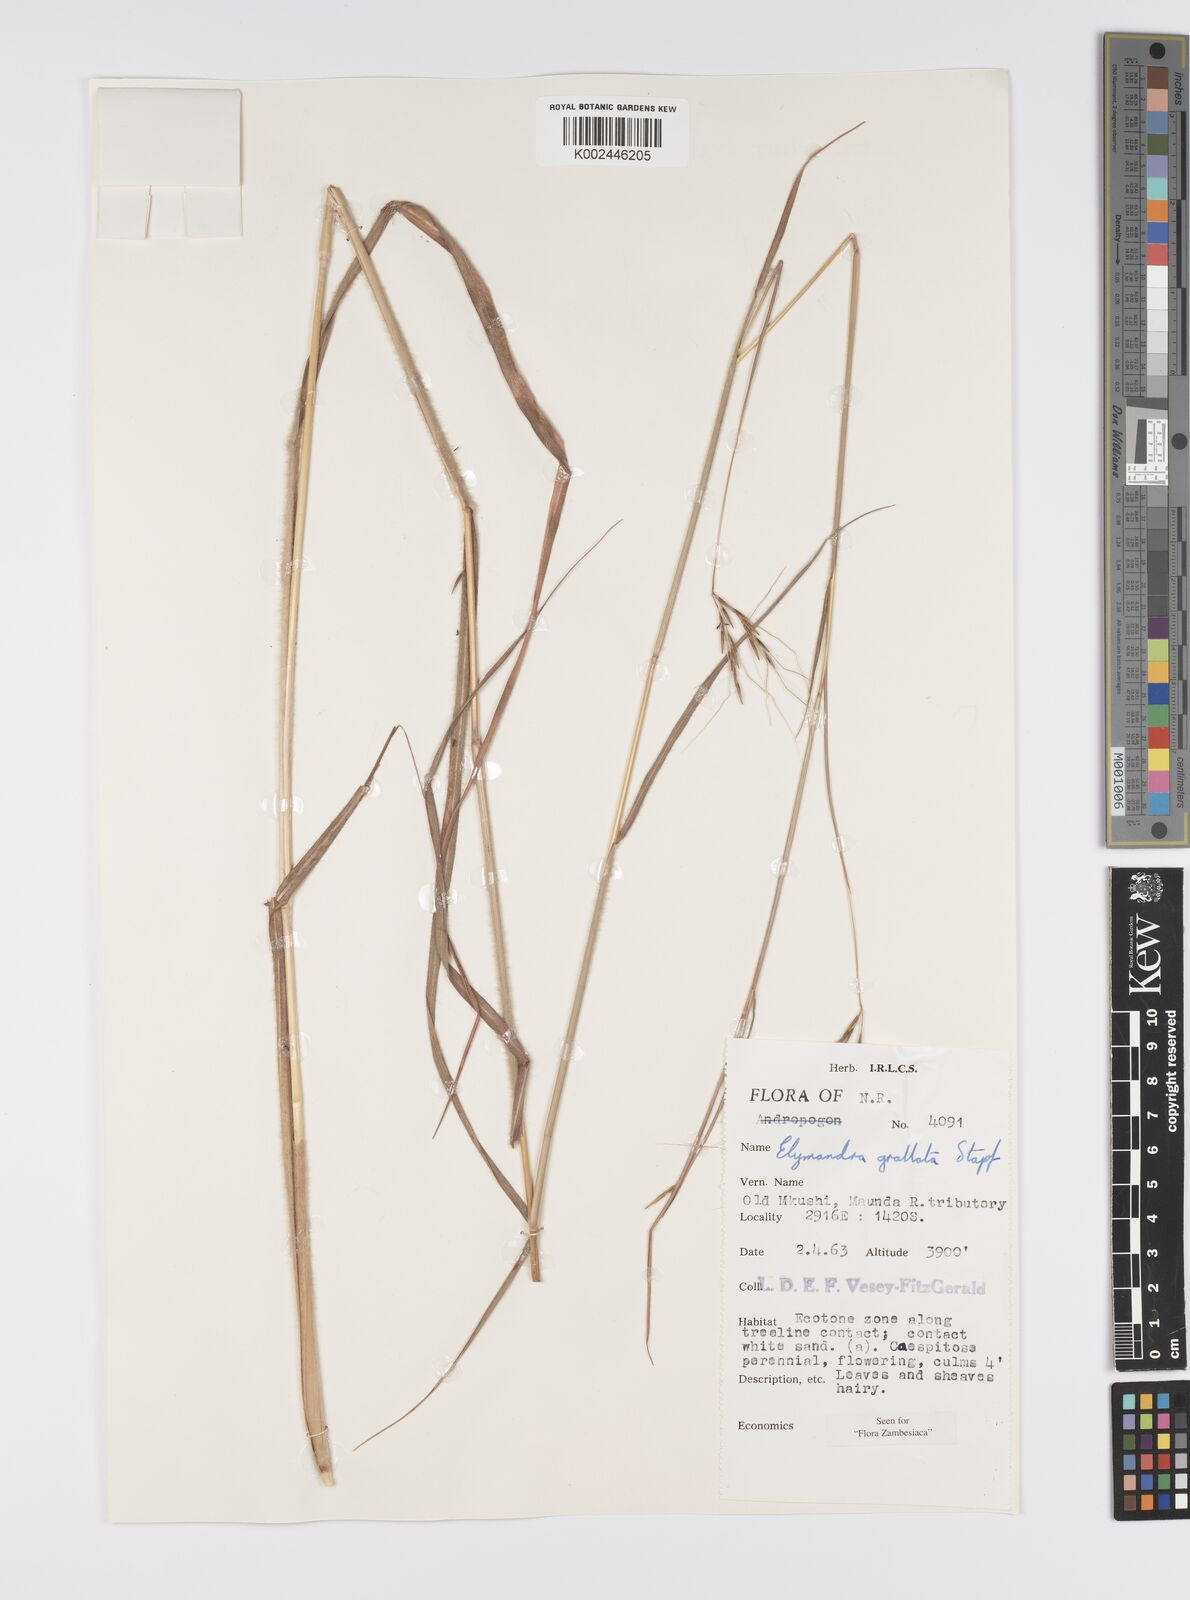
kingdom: Plantae
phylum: Tracheophyta
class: Liliopsida
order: Poales
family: Poaceae
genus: Elymandra
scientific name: Elymandra grallata
